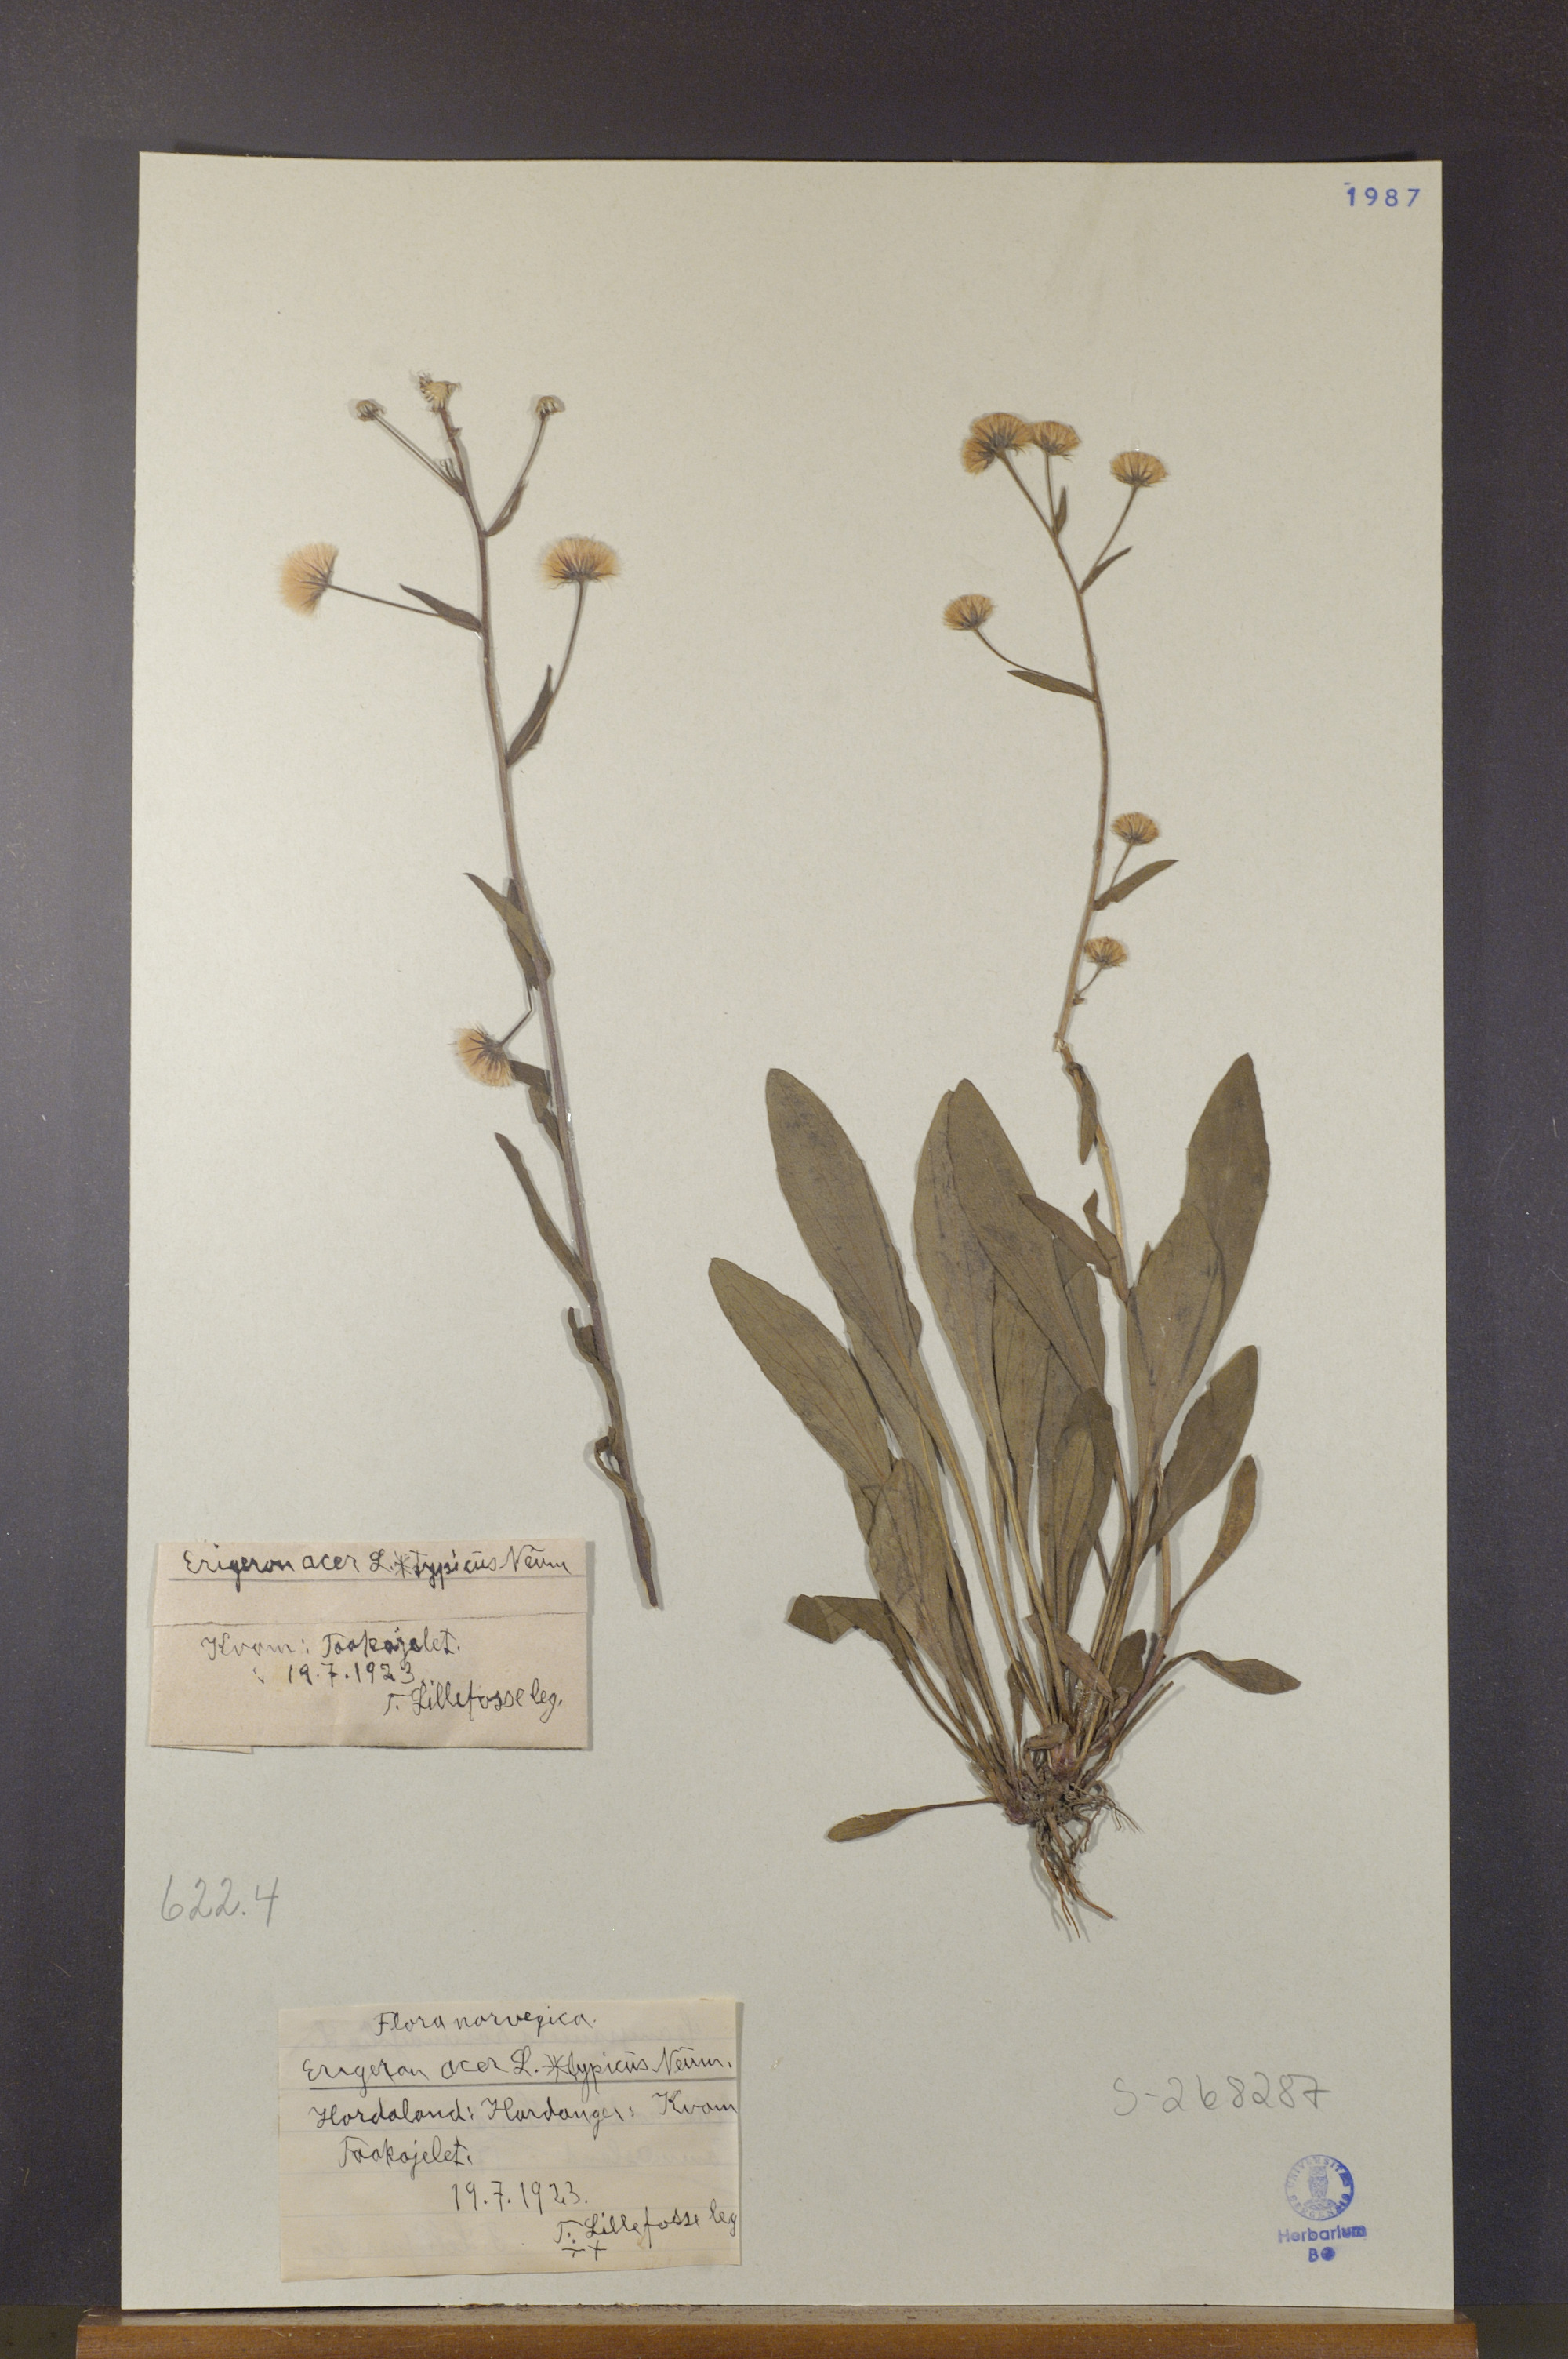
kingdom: Plantae
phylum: Tracheophyta
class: Magnoliopsida
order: Asterales
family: Asteraceae
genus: Erigeron
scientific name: Erigeron acris
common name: Blue fleabane
